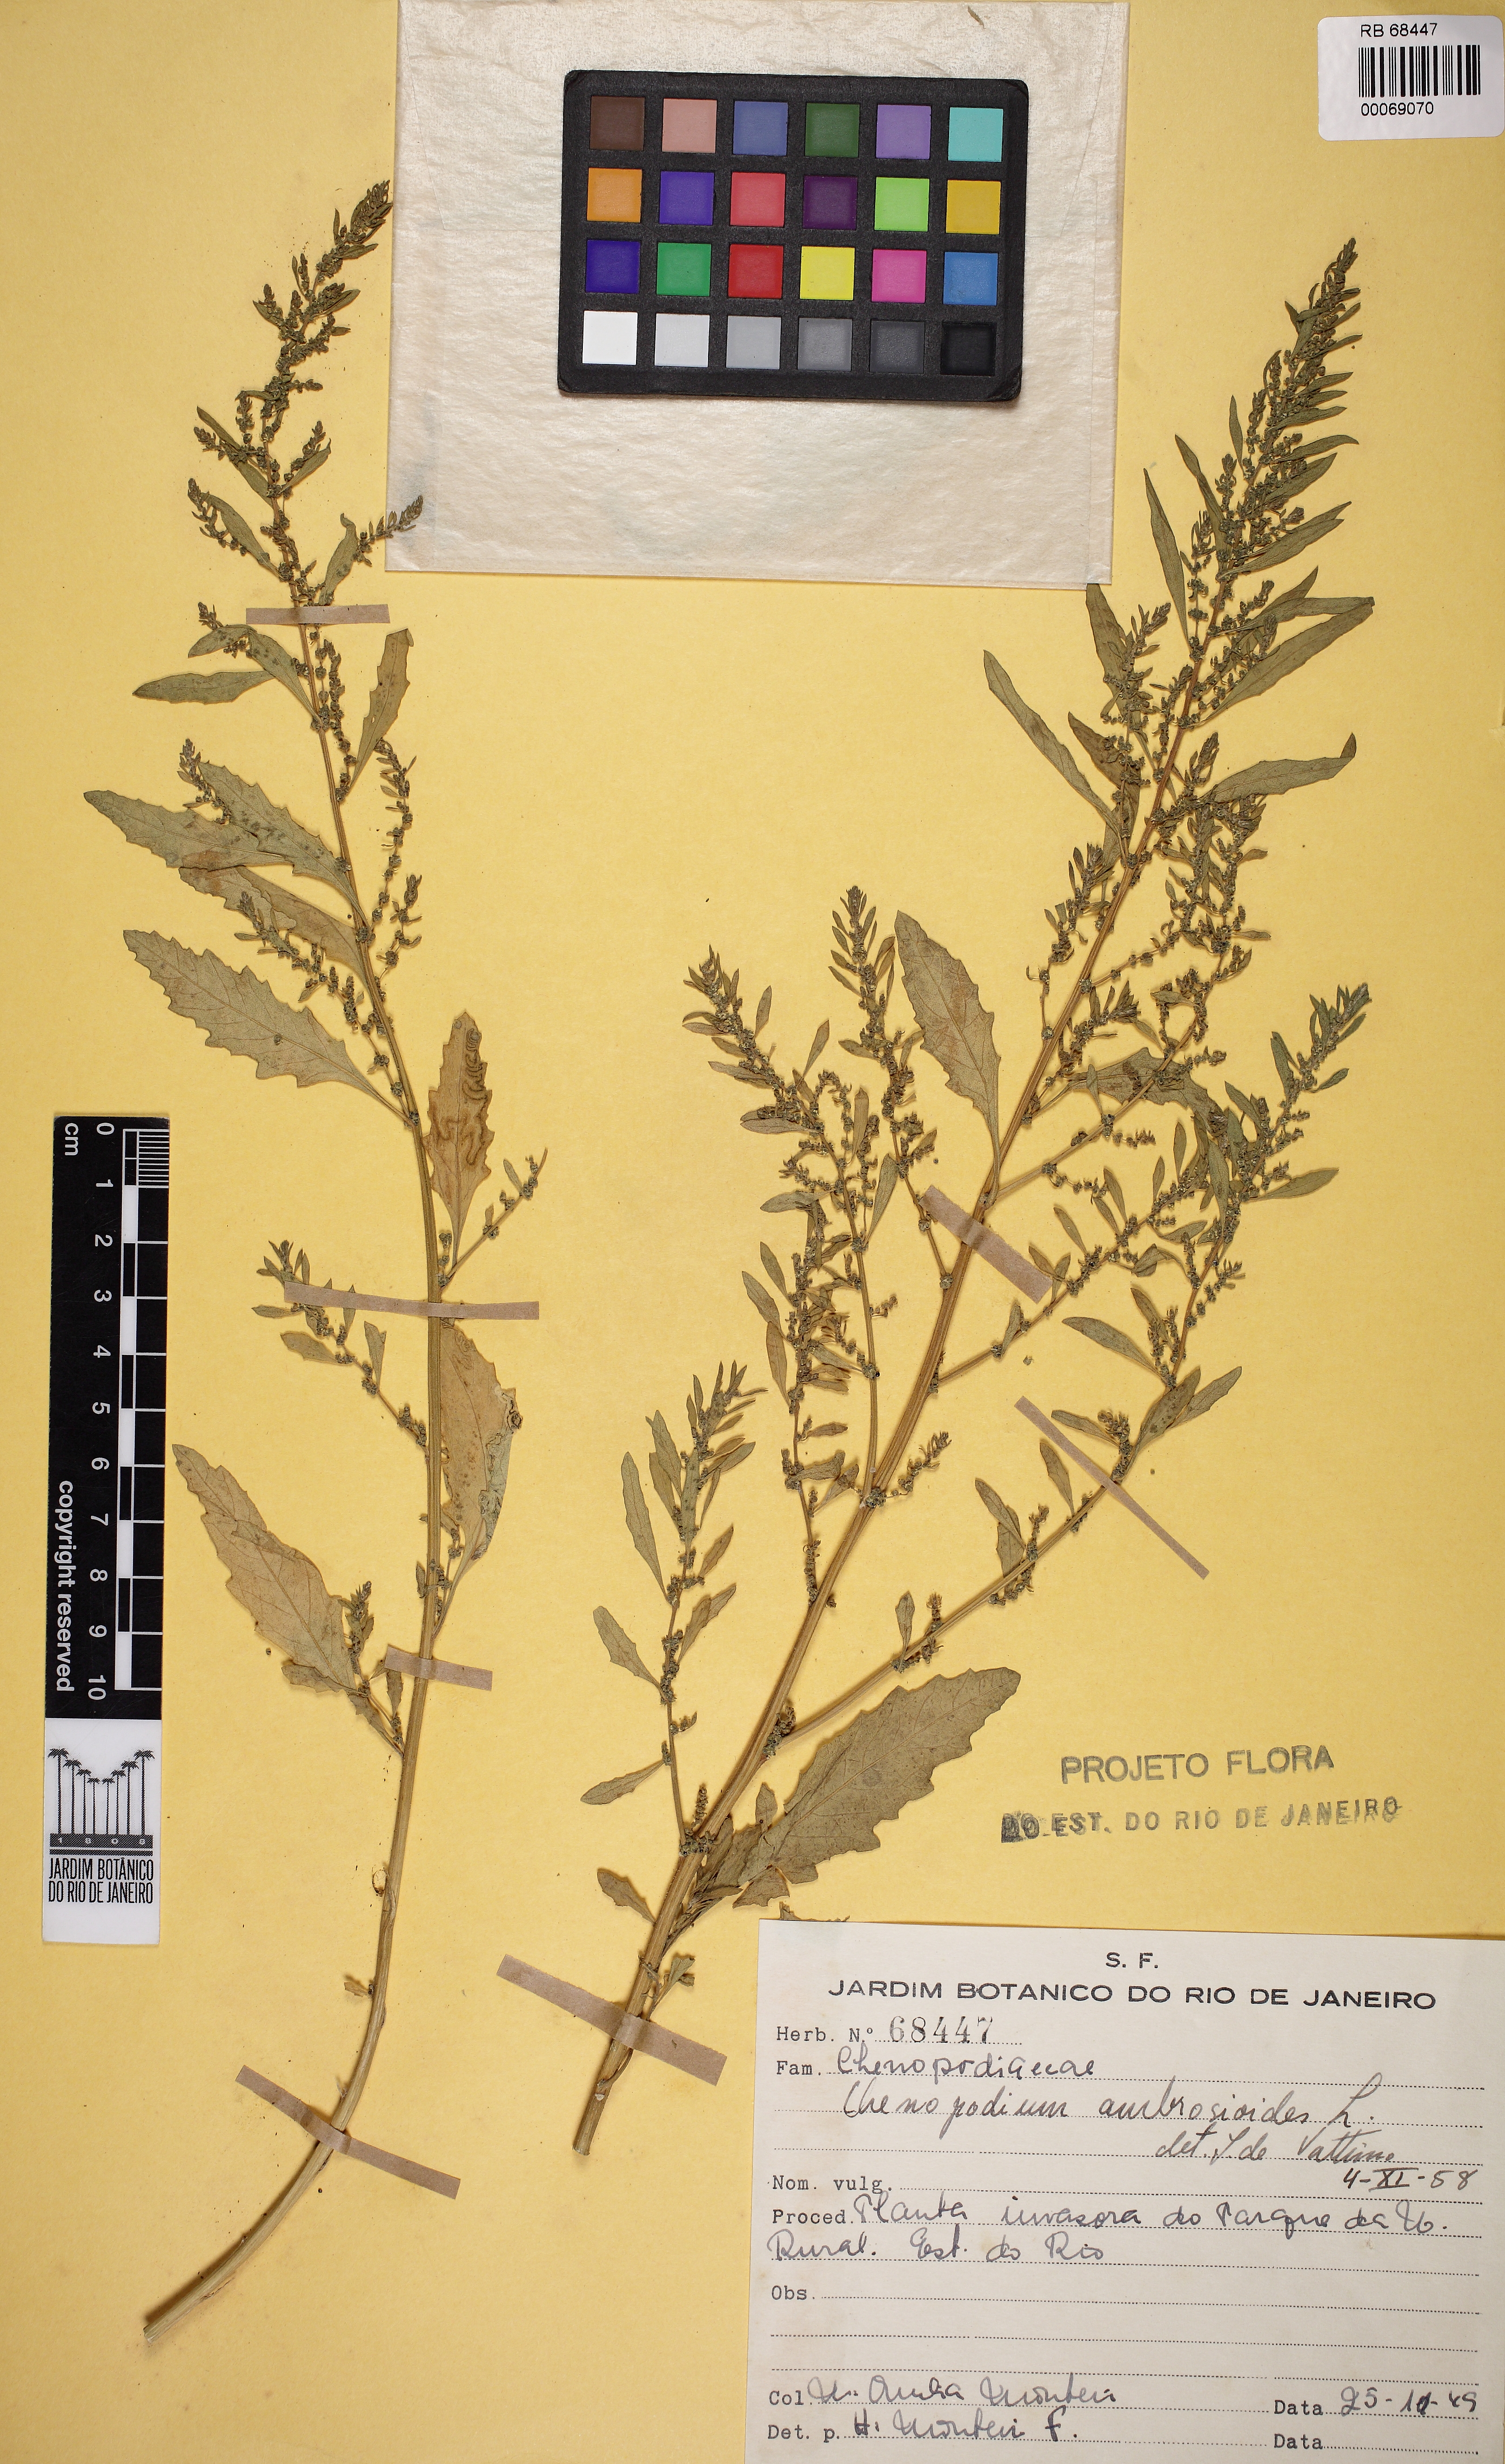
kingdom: Plantae
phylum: Tracheophyta
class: Magnoliopsida
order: Caryophyllales
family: Amaranthaceae
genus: Dysphania
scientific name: Dysphania ambrosioides
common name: Wormseed
